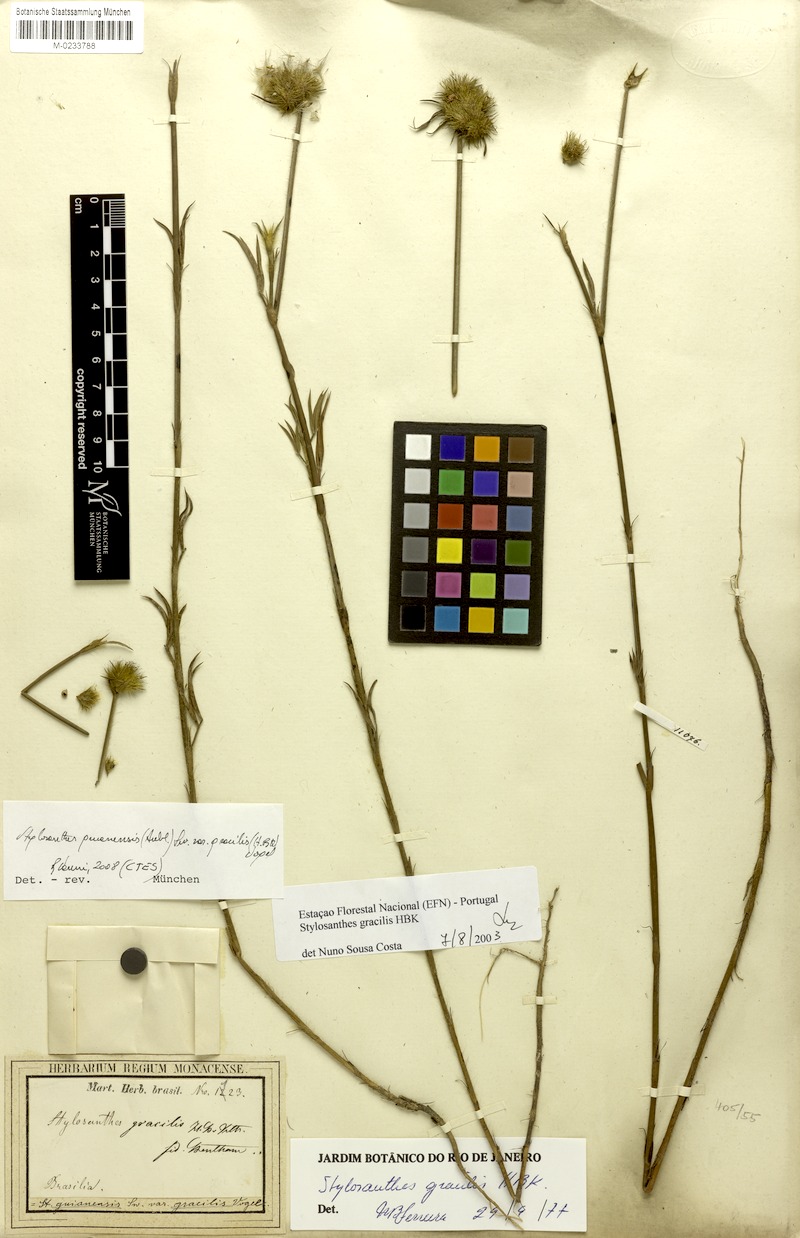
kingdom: Plantae
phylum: Tracheophyta
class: Magnoliopsida
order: Fabales
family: Fabaceae
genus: Stylosanthes
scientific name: Stylosanthes guianensis
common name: Pencil flower
